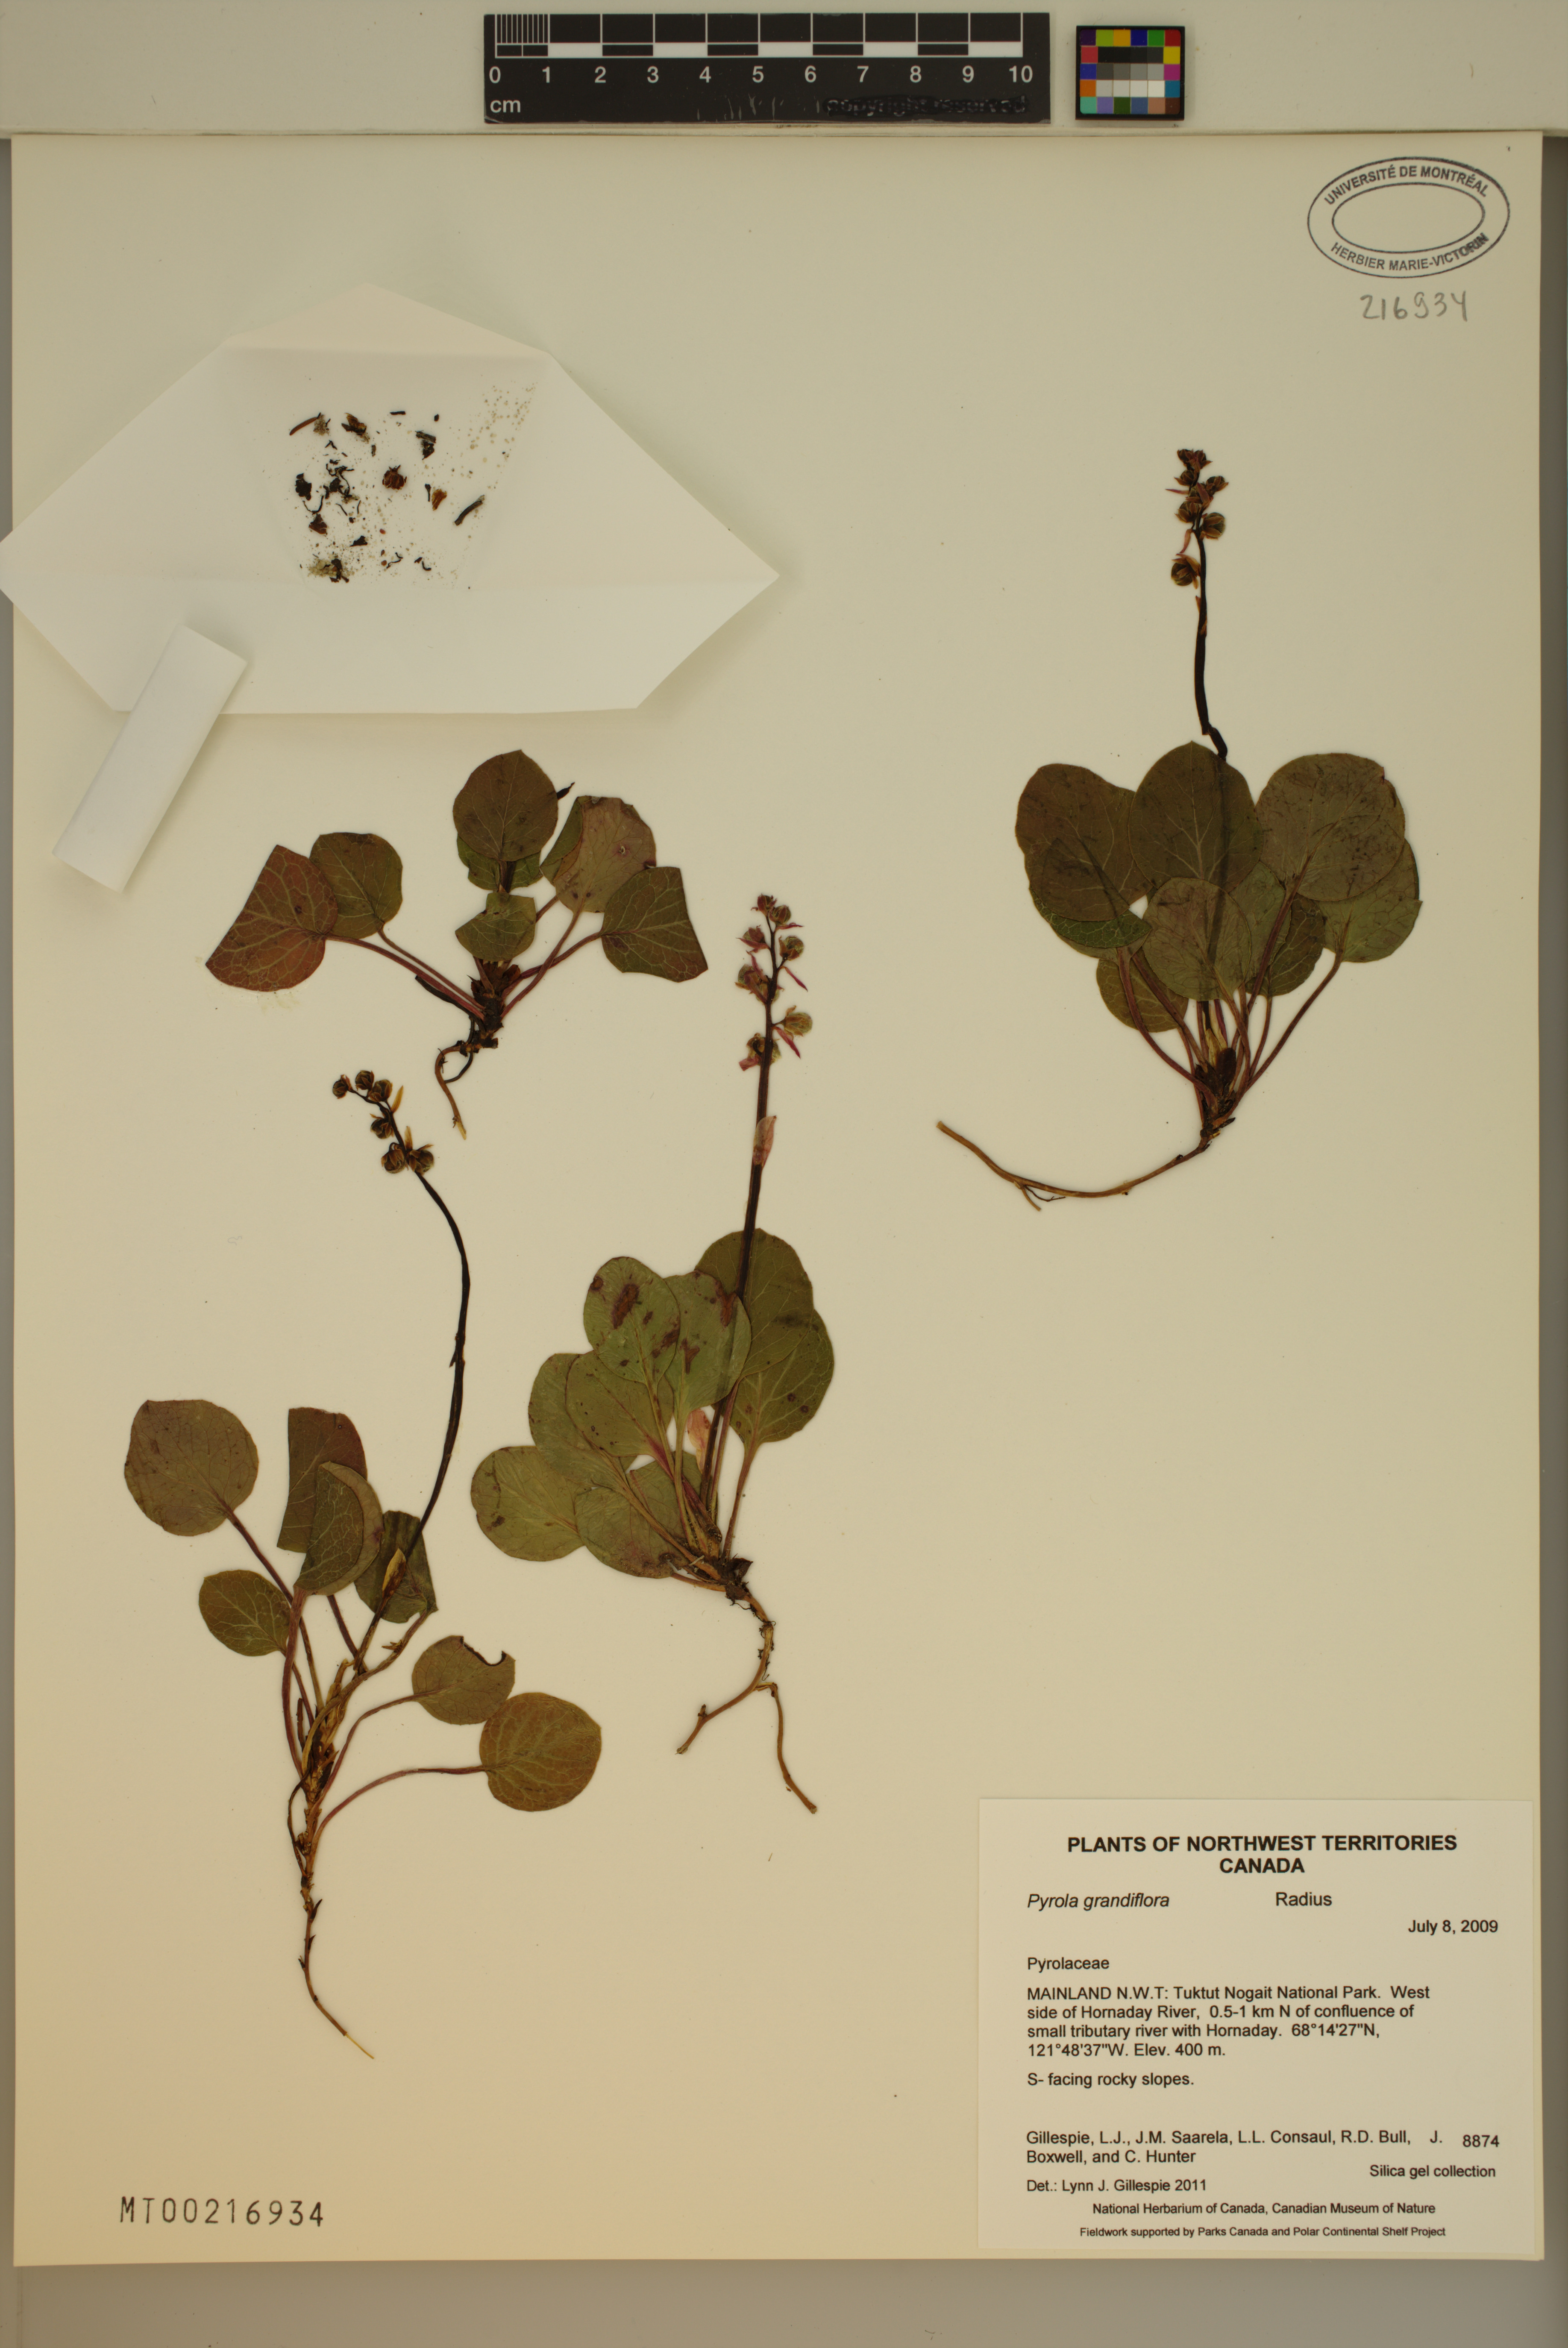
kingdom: Plantae
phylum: Tracheophyta
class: Magnoliopsida
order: Ericales
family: Ericaceae
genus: Pyrola
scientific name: Pyrola grandiflora
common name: Arctic pyrola
